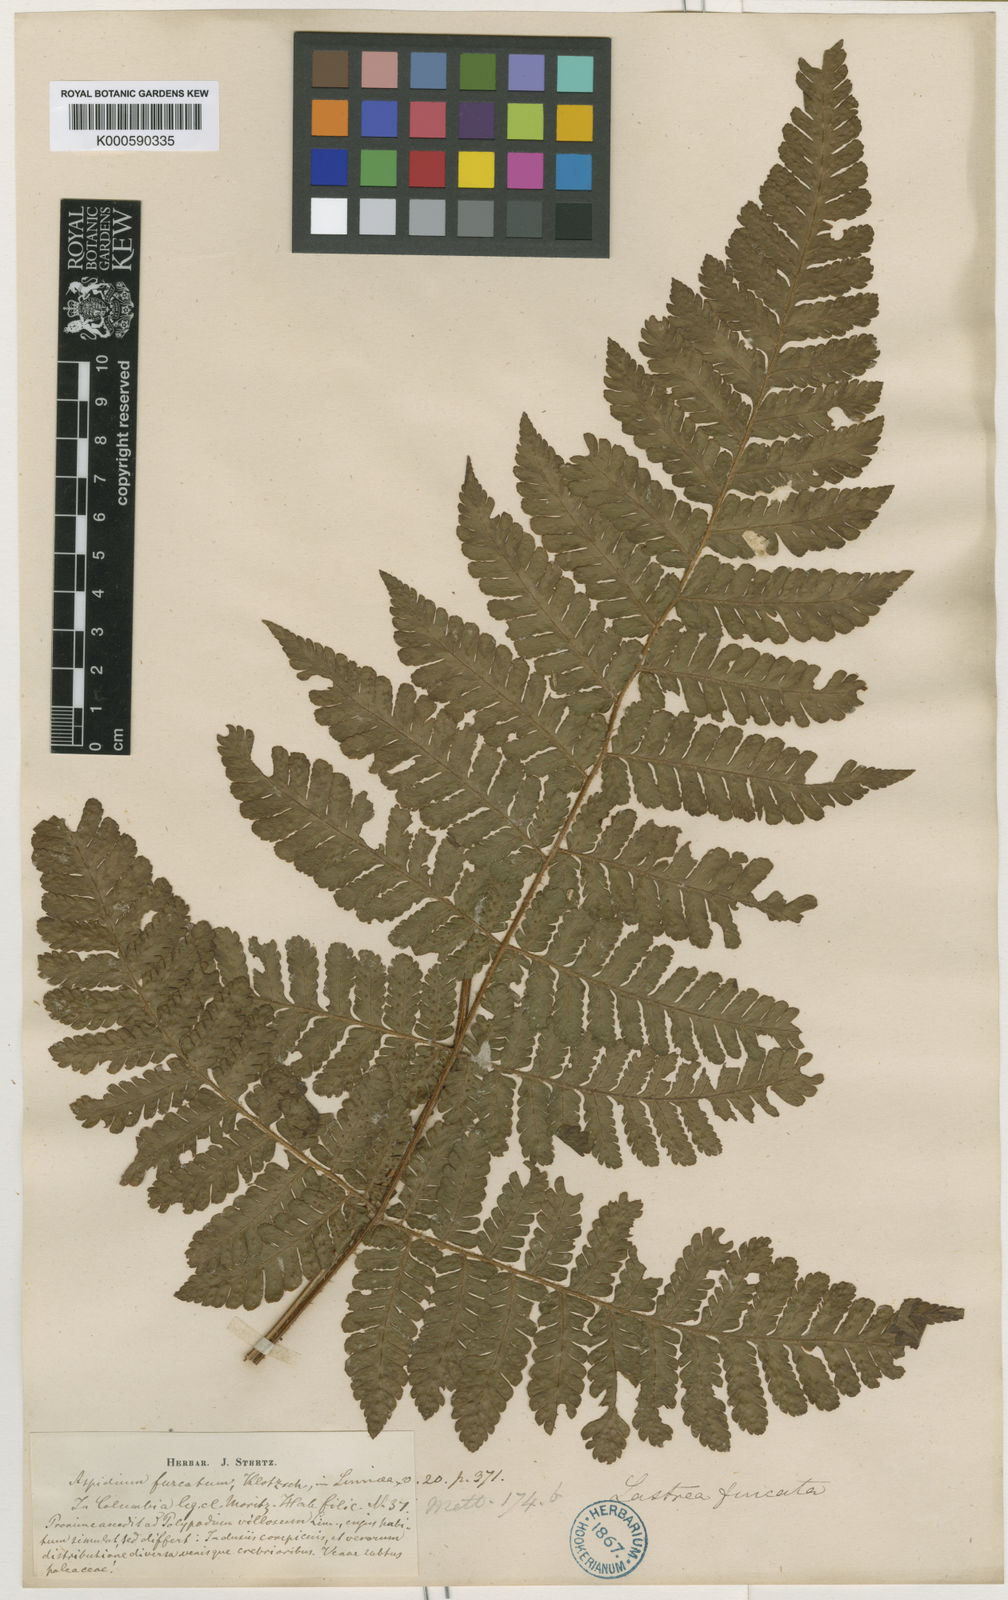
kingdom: Plantae
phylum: Tracheophyta
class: Polypodiopsida
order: Polypodiales
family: Dryopteridaceae
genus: Ctenitis
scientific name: Ctenitis sloanei
